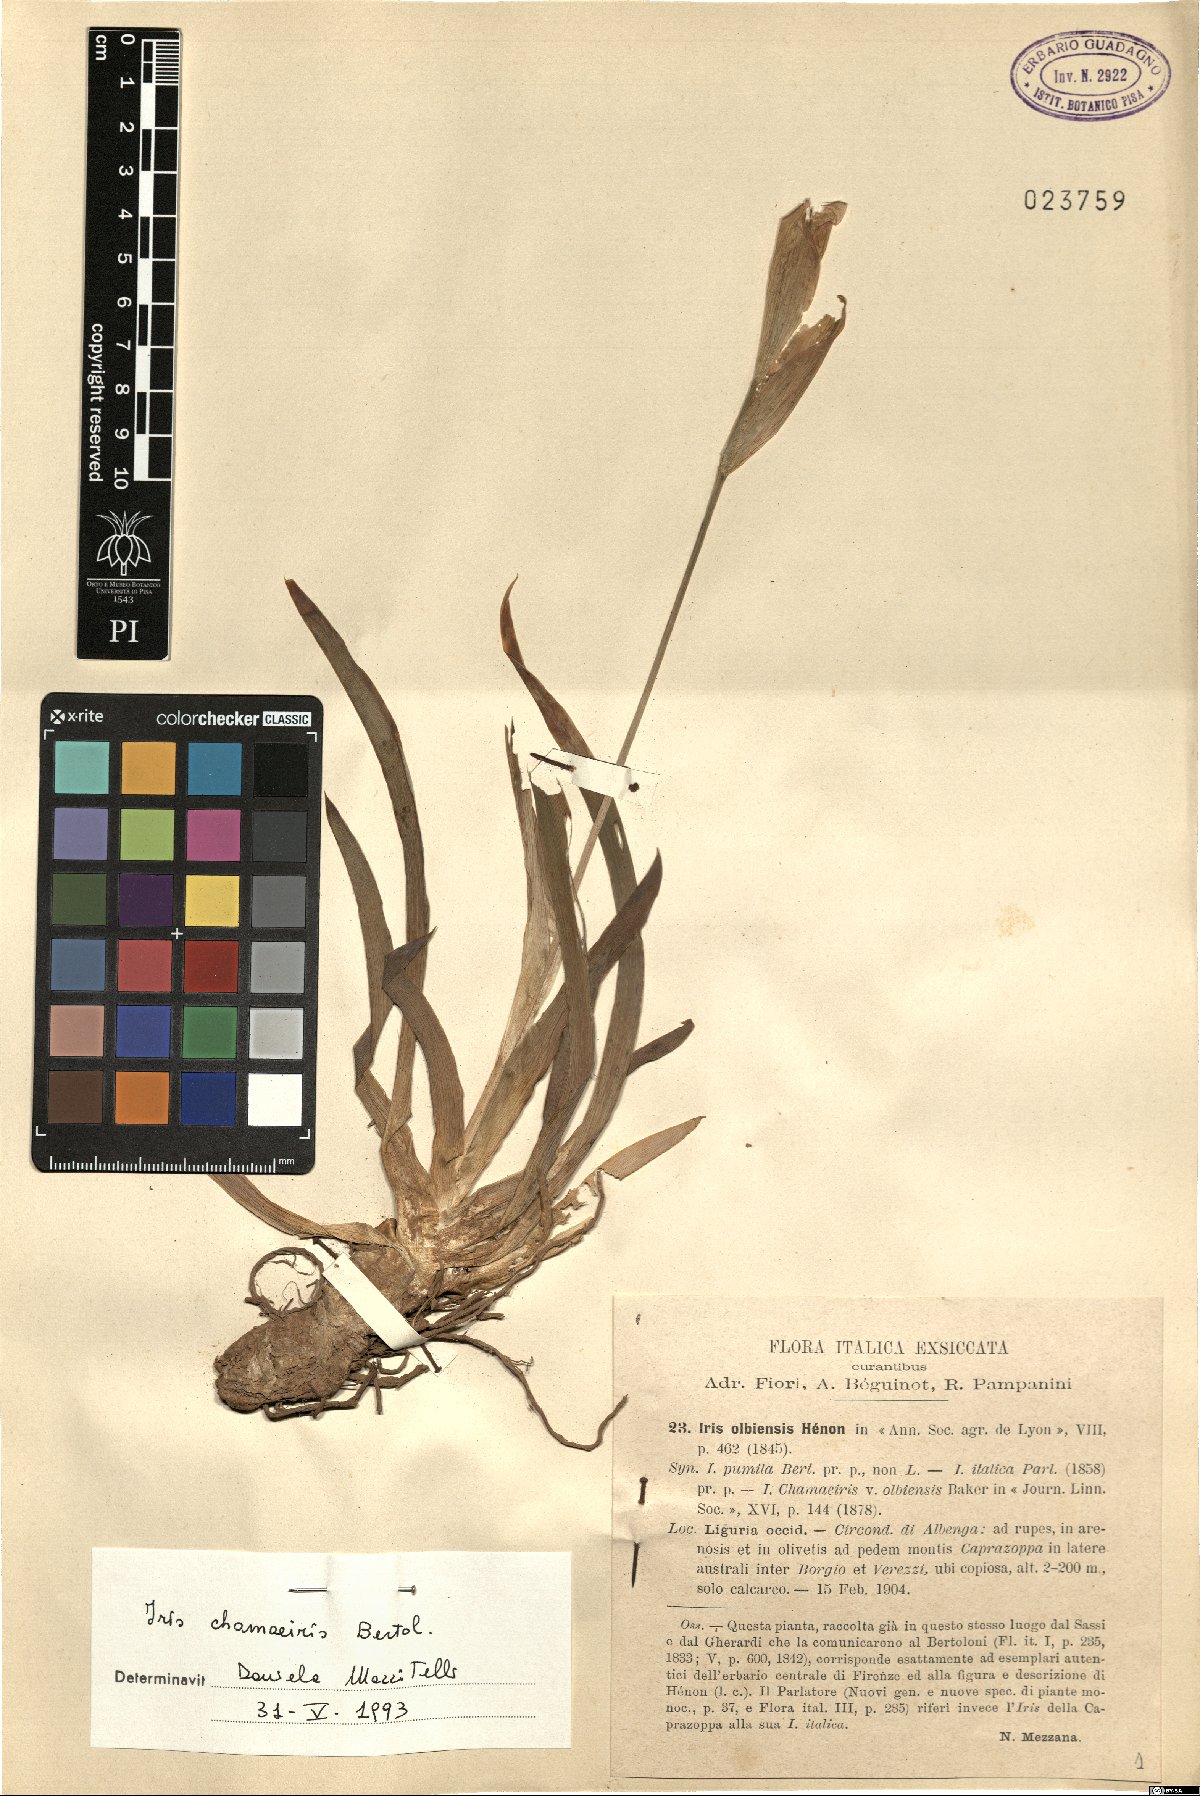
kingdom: Plantae
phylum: Tracheophyta
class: Liliopsida
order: Asparagales
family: Iridaceae
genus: Iris
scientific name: Iris lutescens
